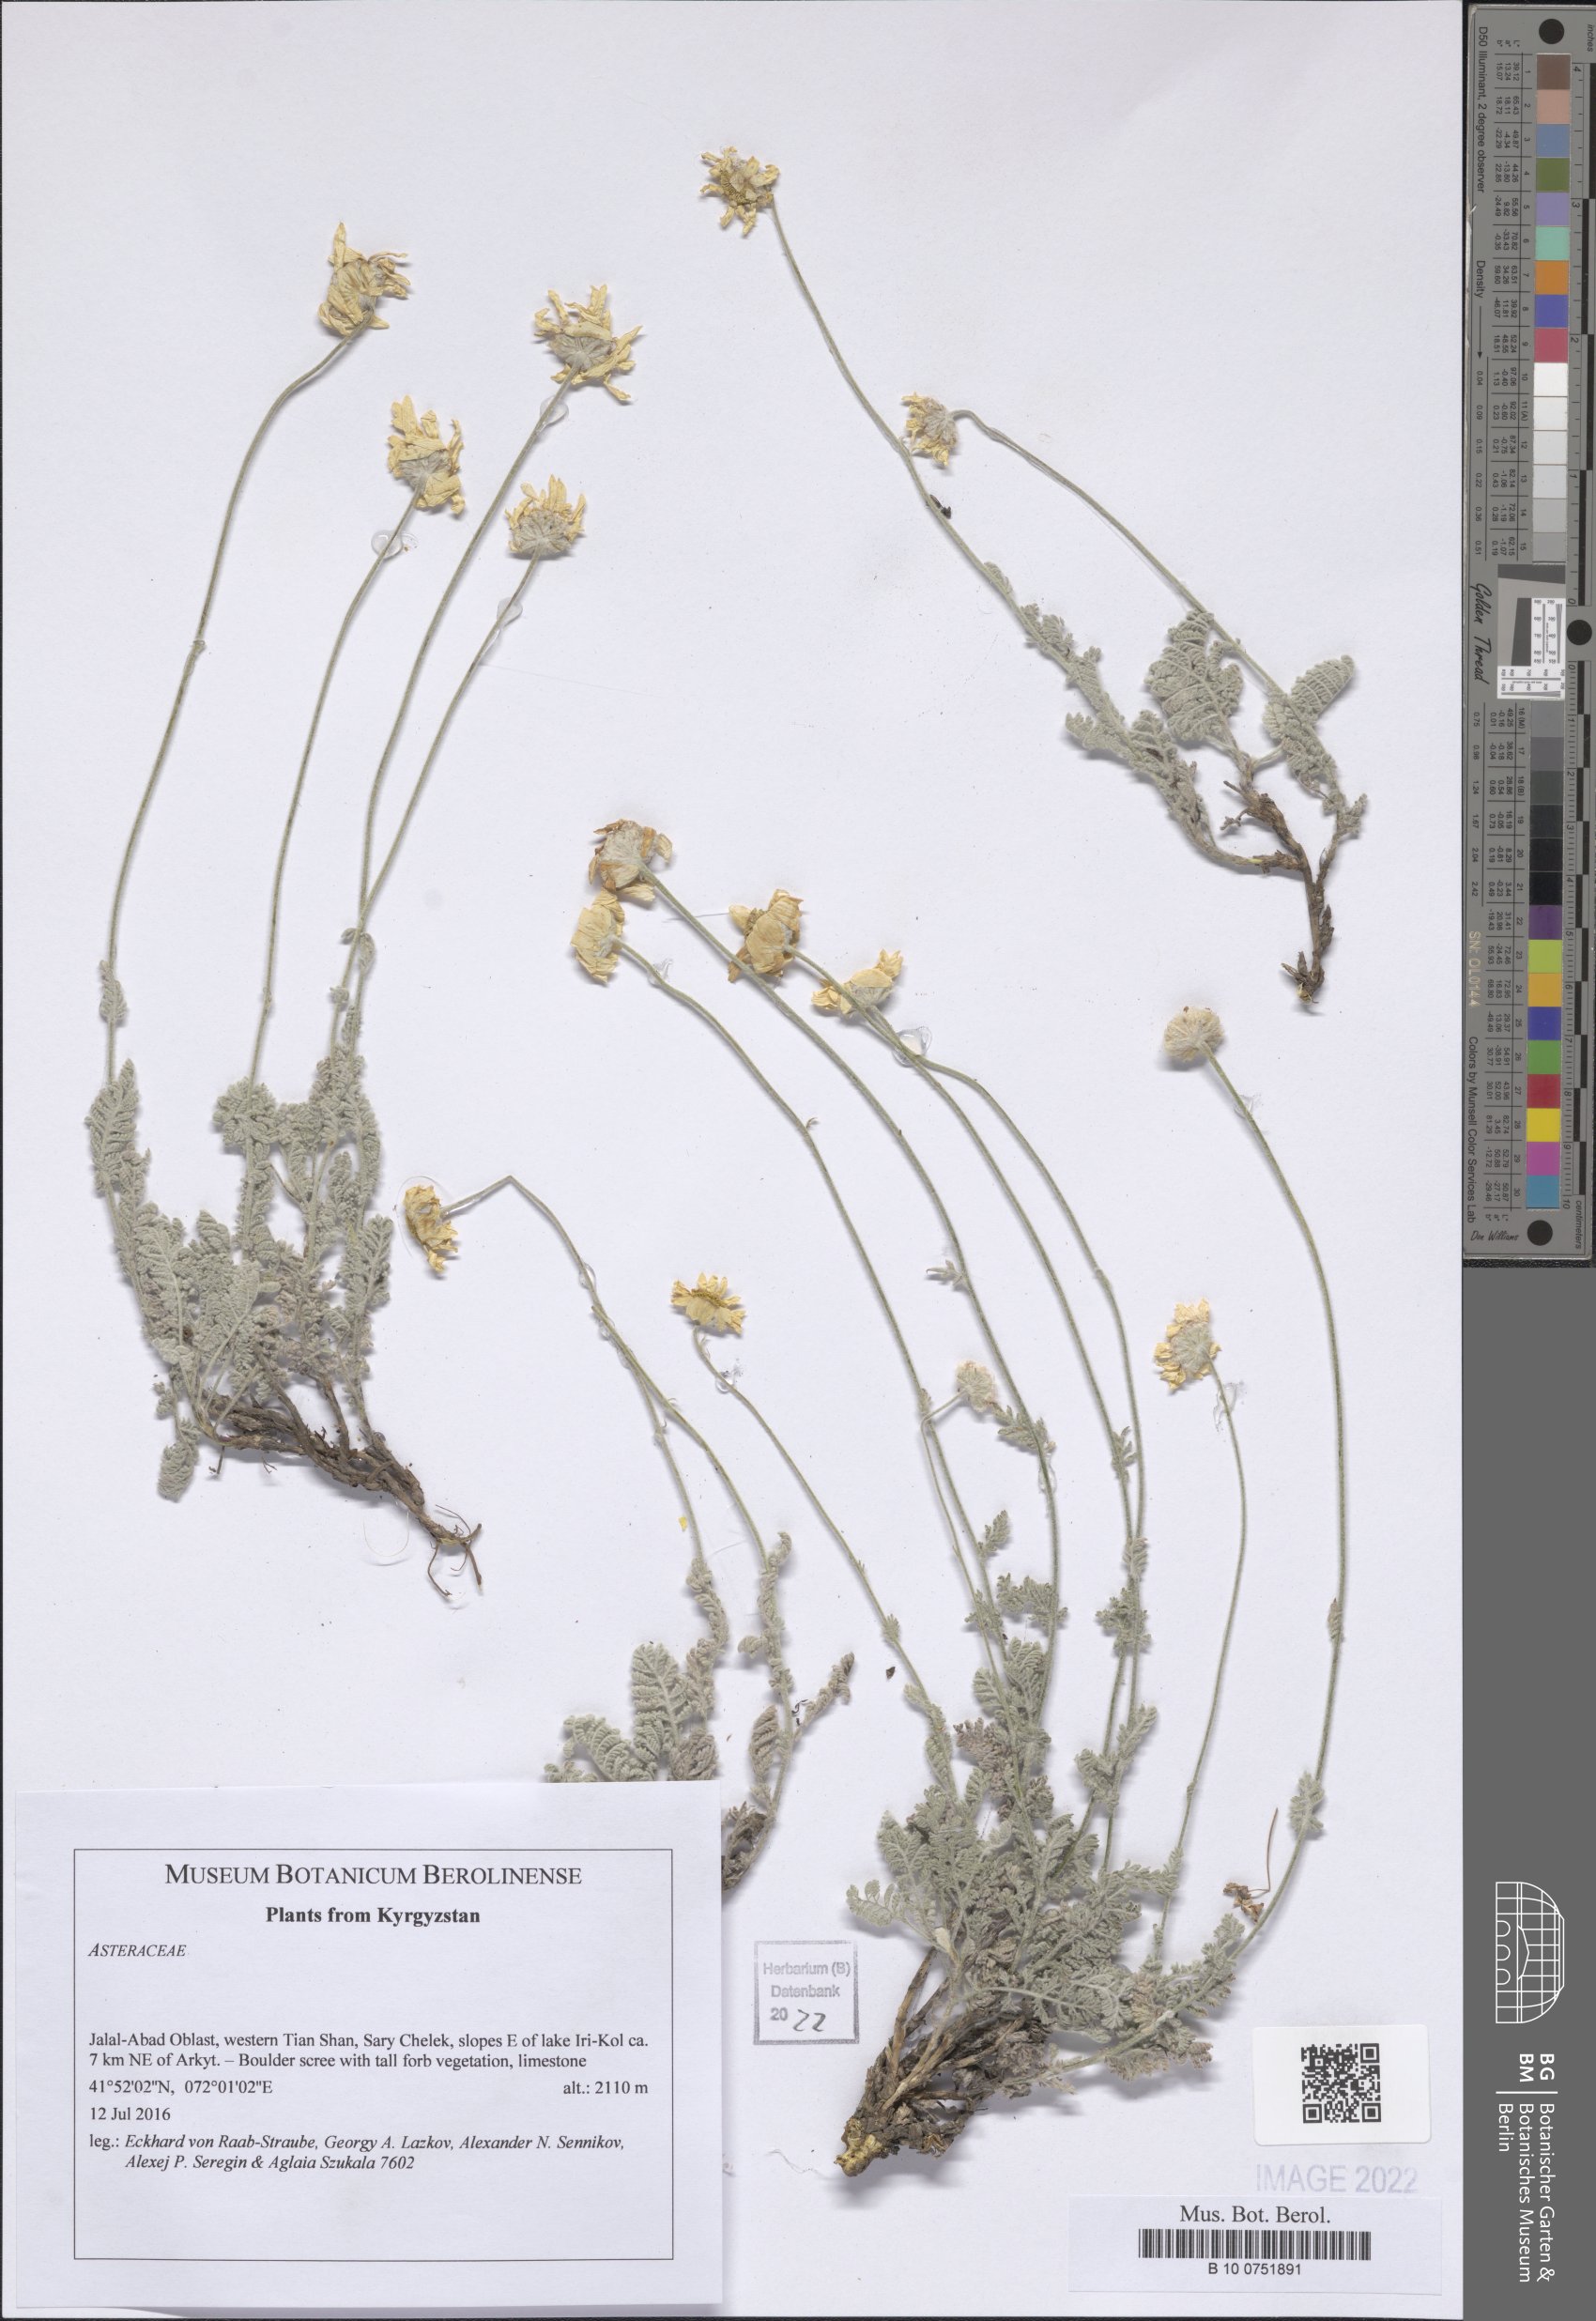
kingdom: Plantae
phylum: Tracheophyta
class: Magnoliopsida
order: Asterales
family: Asteraceae
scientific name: Asteraceae
